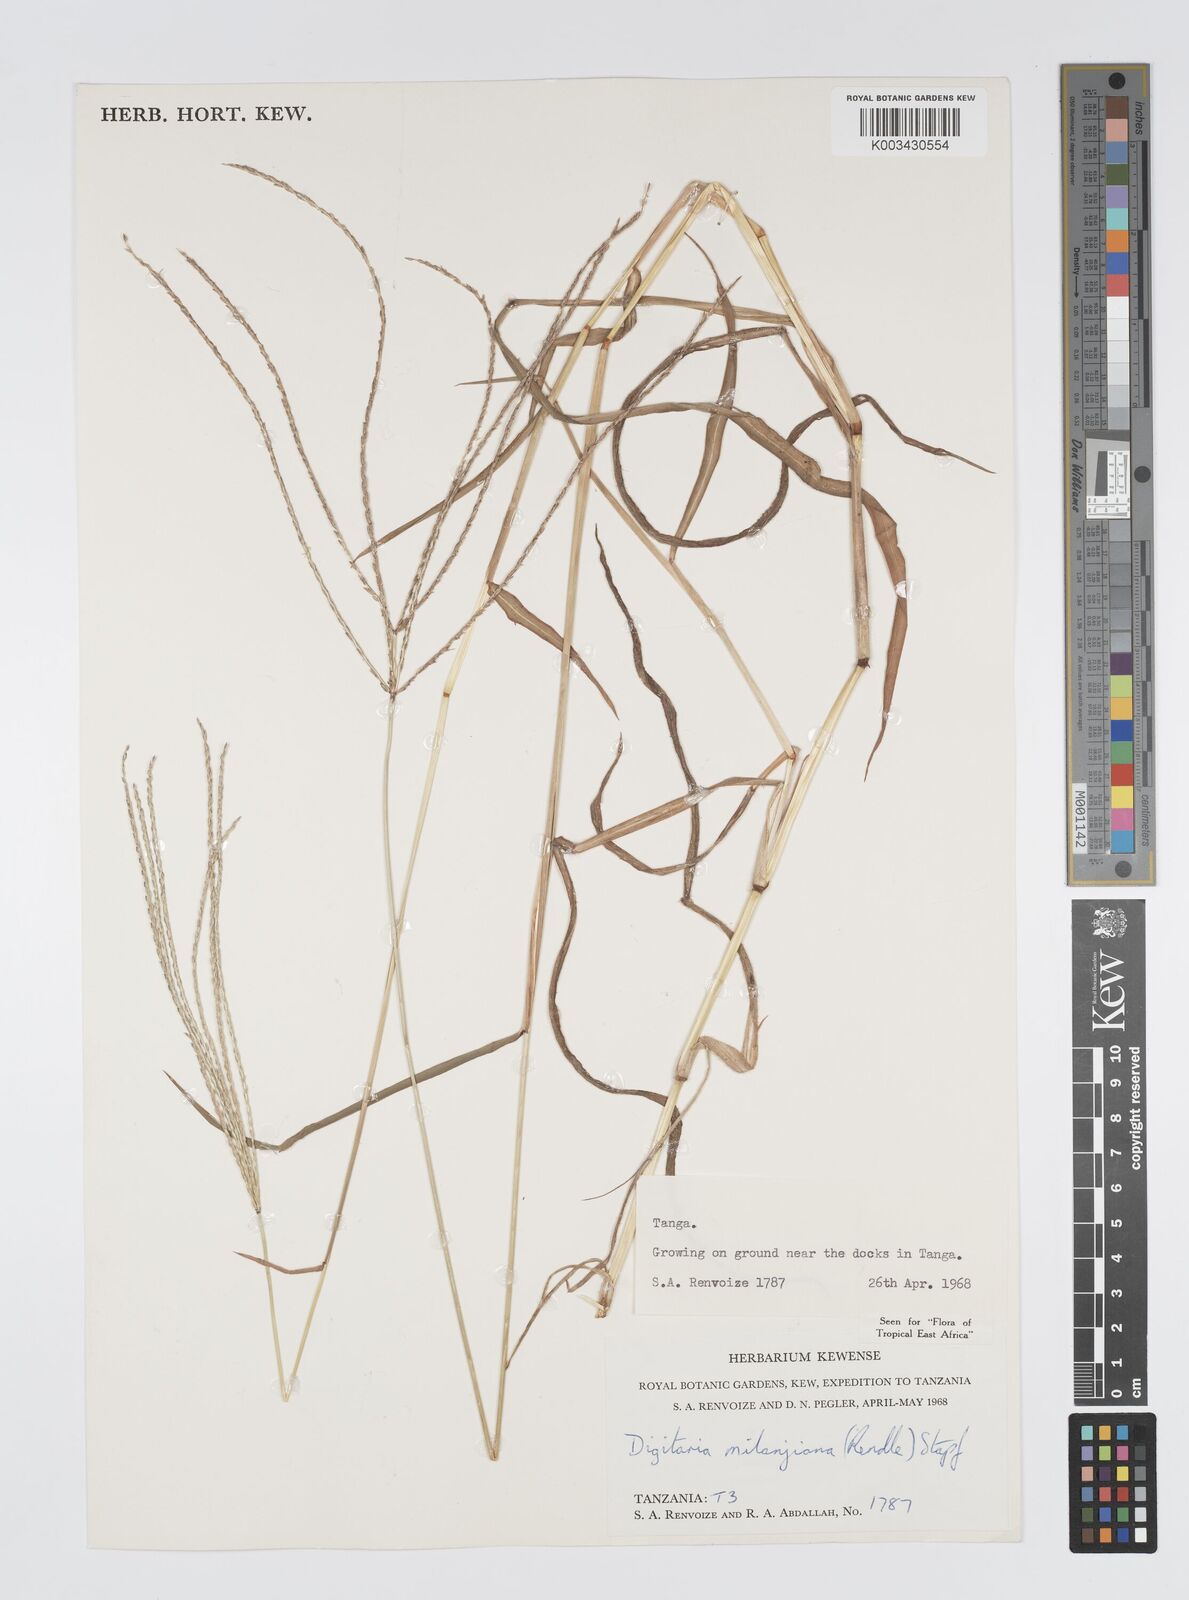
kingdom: Plantae
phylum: Tracheophyta
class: Liliopsida
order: Poales
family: Poaceae
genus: Digitaria
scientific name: Digitaria milanjiana
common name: Madagascar crabgrass
